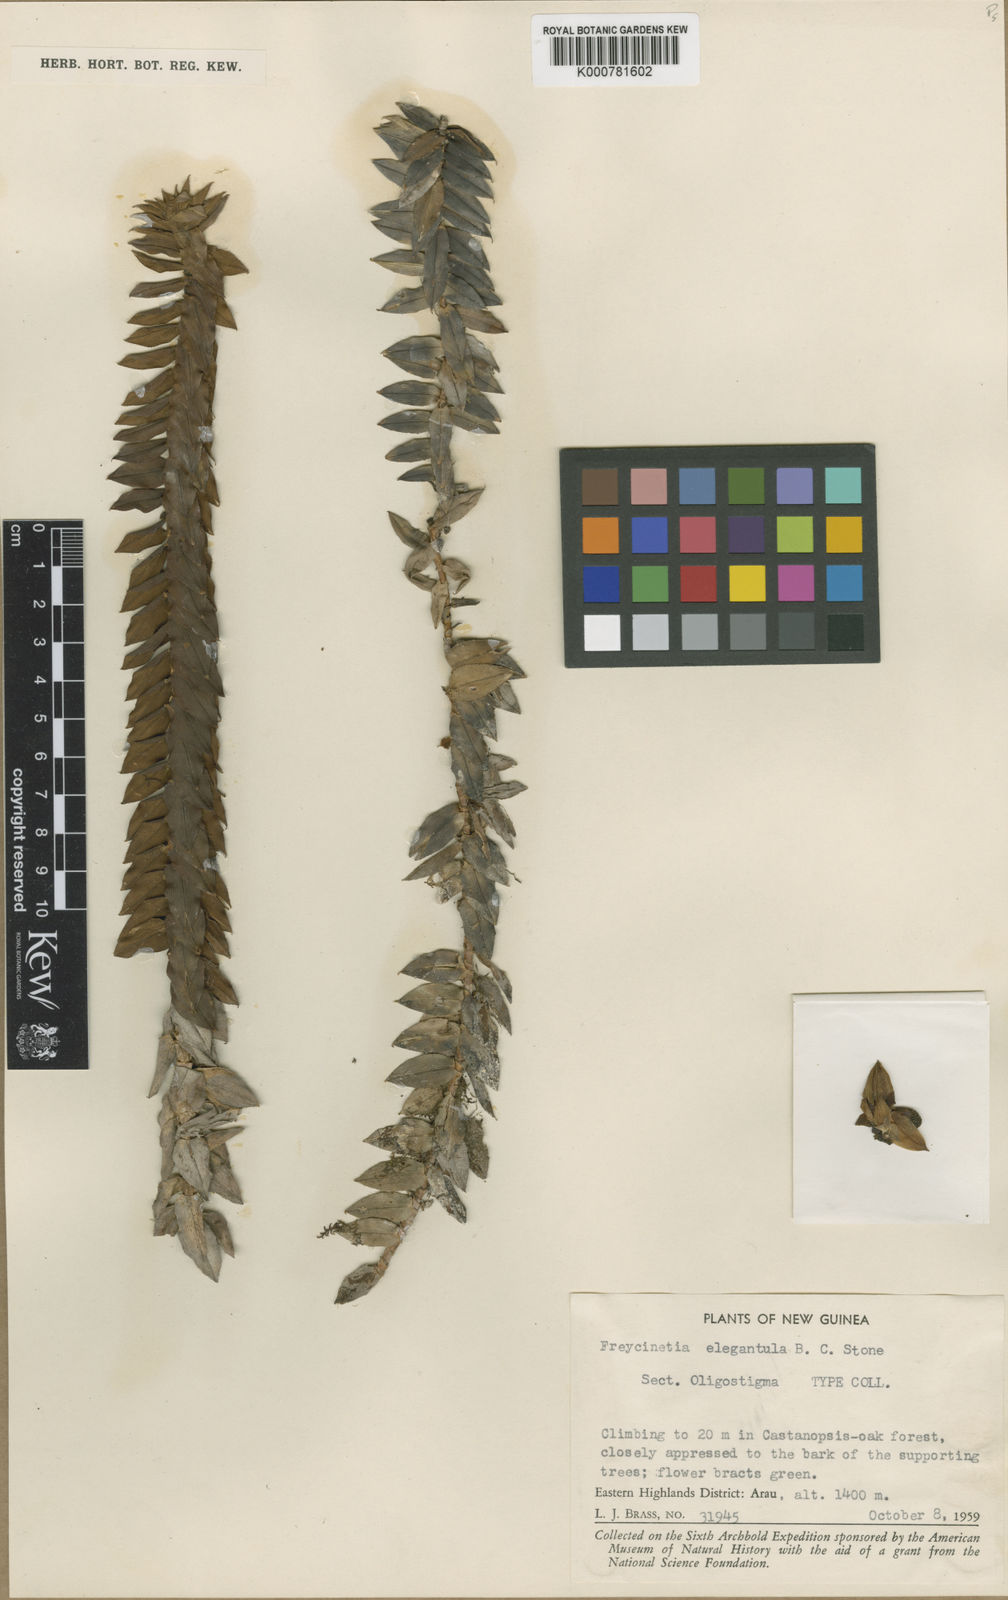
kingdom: Plantae
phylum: Tracheophyta
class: Liliopsida
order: Pandanales
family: Pandanaceae
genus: Freycinetia
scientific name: Freycinetia
